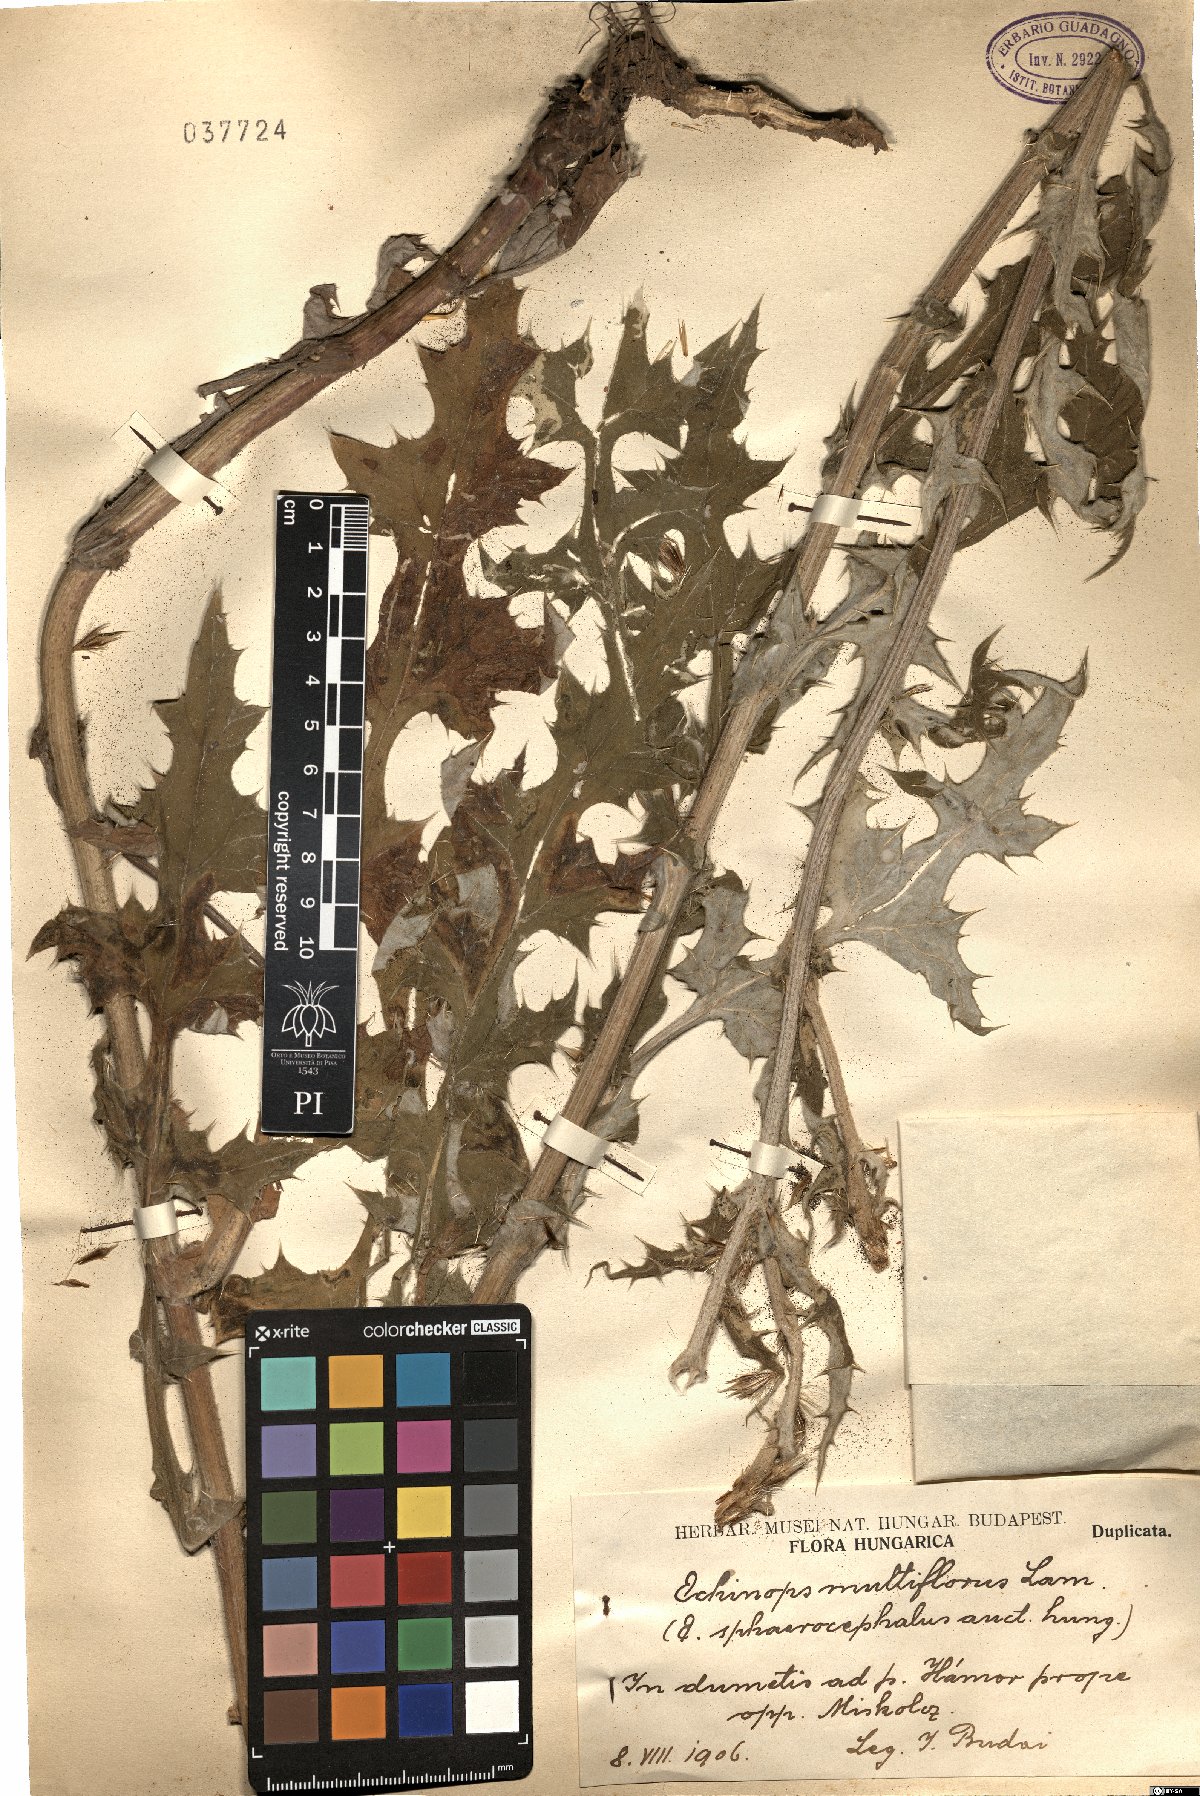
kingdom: Plantae
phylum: Tracheophyta
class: Magnoliopsida
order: Asterales
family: Asteraceae
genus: Echinops
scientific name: Echinops sphaerocephalus
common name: Glandular globe-thistle
